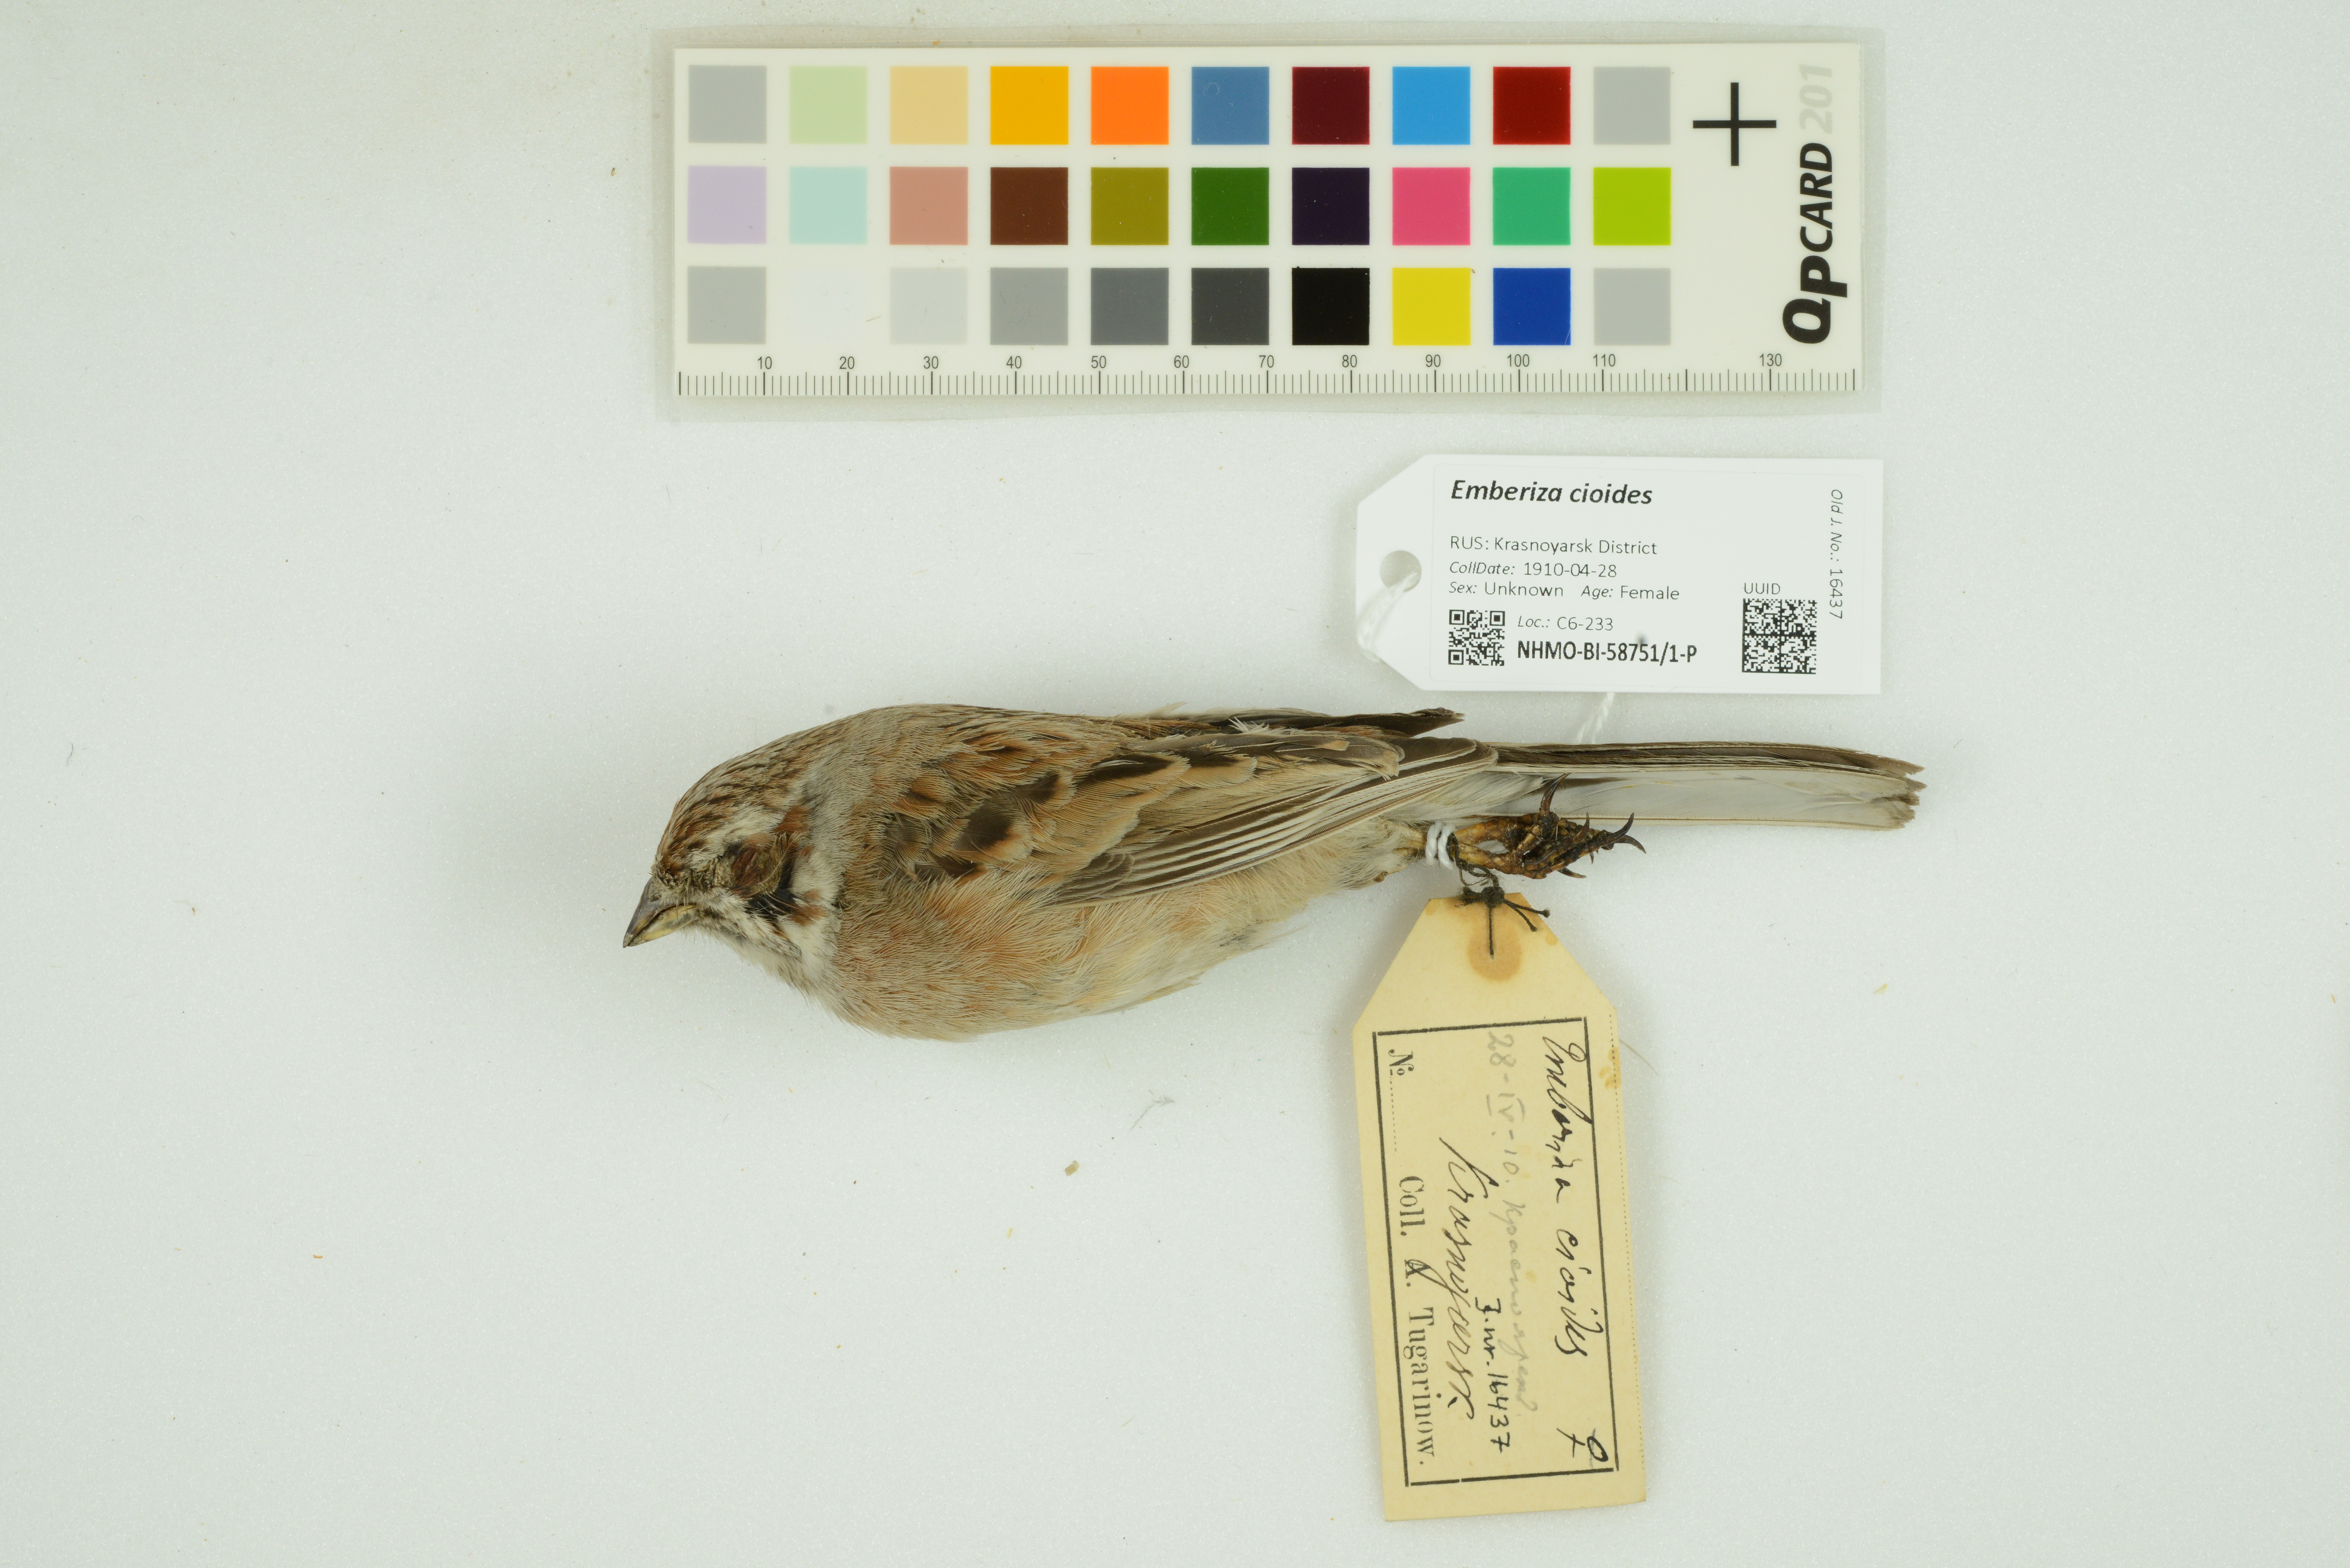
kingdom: Animalia
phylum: Chordata
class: Aves
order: Passeriformes
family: Emberizidae
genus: Emberiza
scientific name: Emberiza cioides
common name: Meadow bunting
